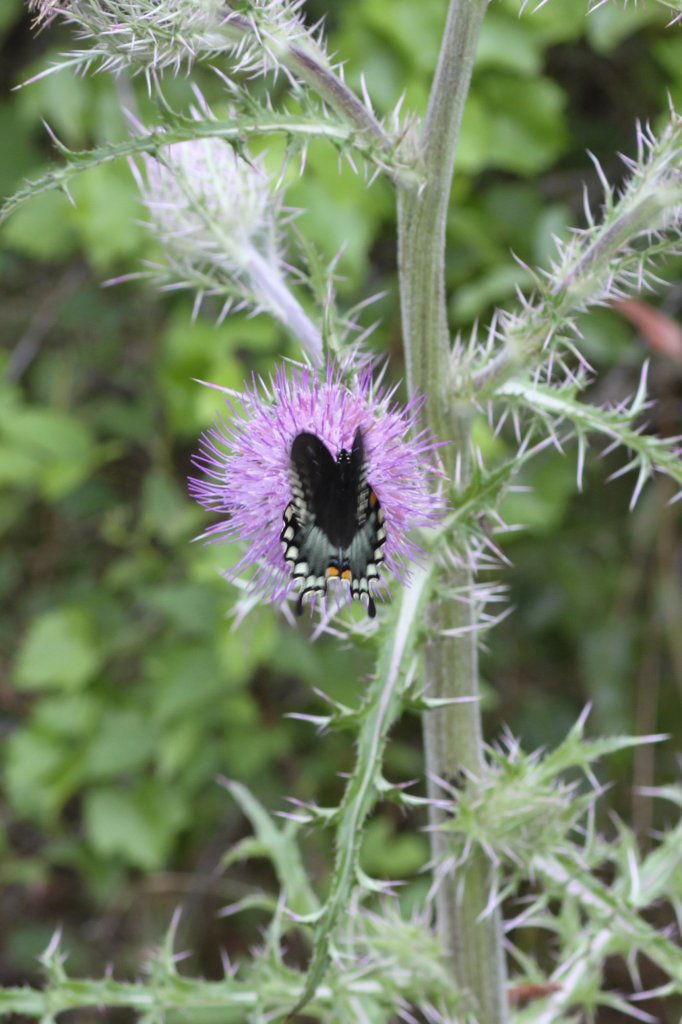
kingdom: Animalia
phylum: Arthropoda
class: Insecta
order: Lepidoptera
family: Papilionidae
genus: Pterourus
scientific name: Pterourus troilus
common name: Spicebush Swallowtail
